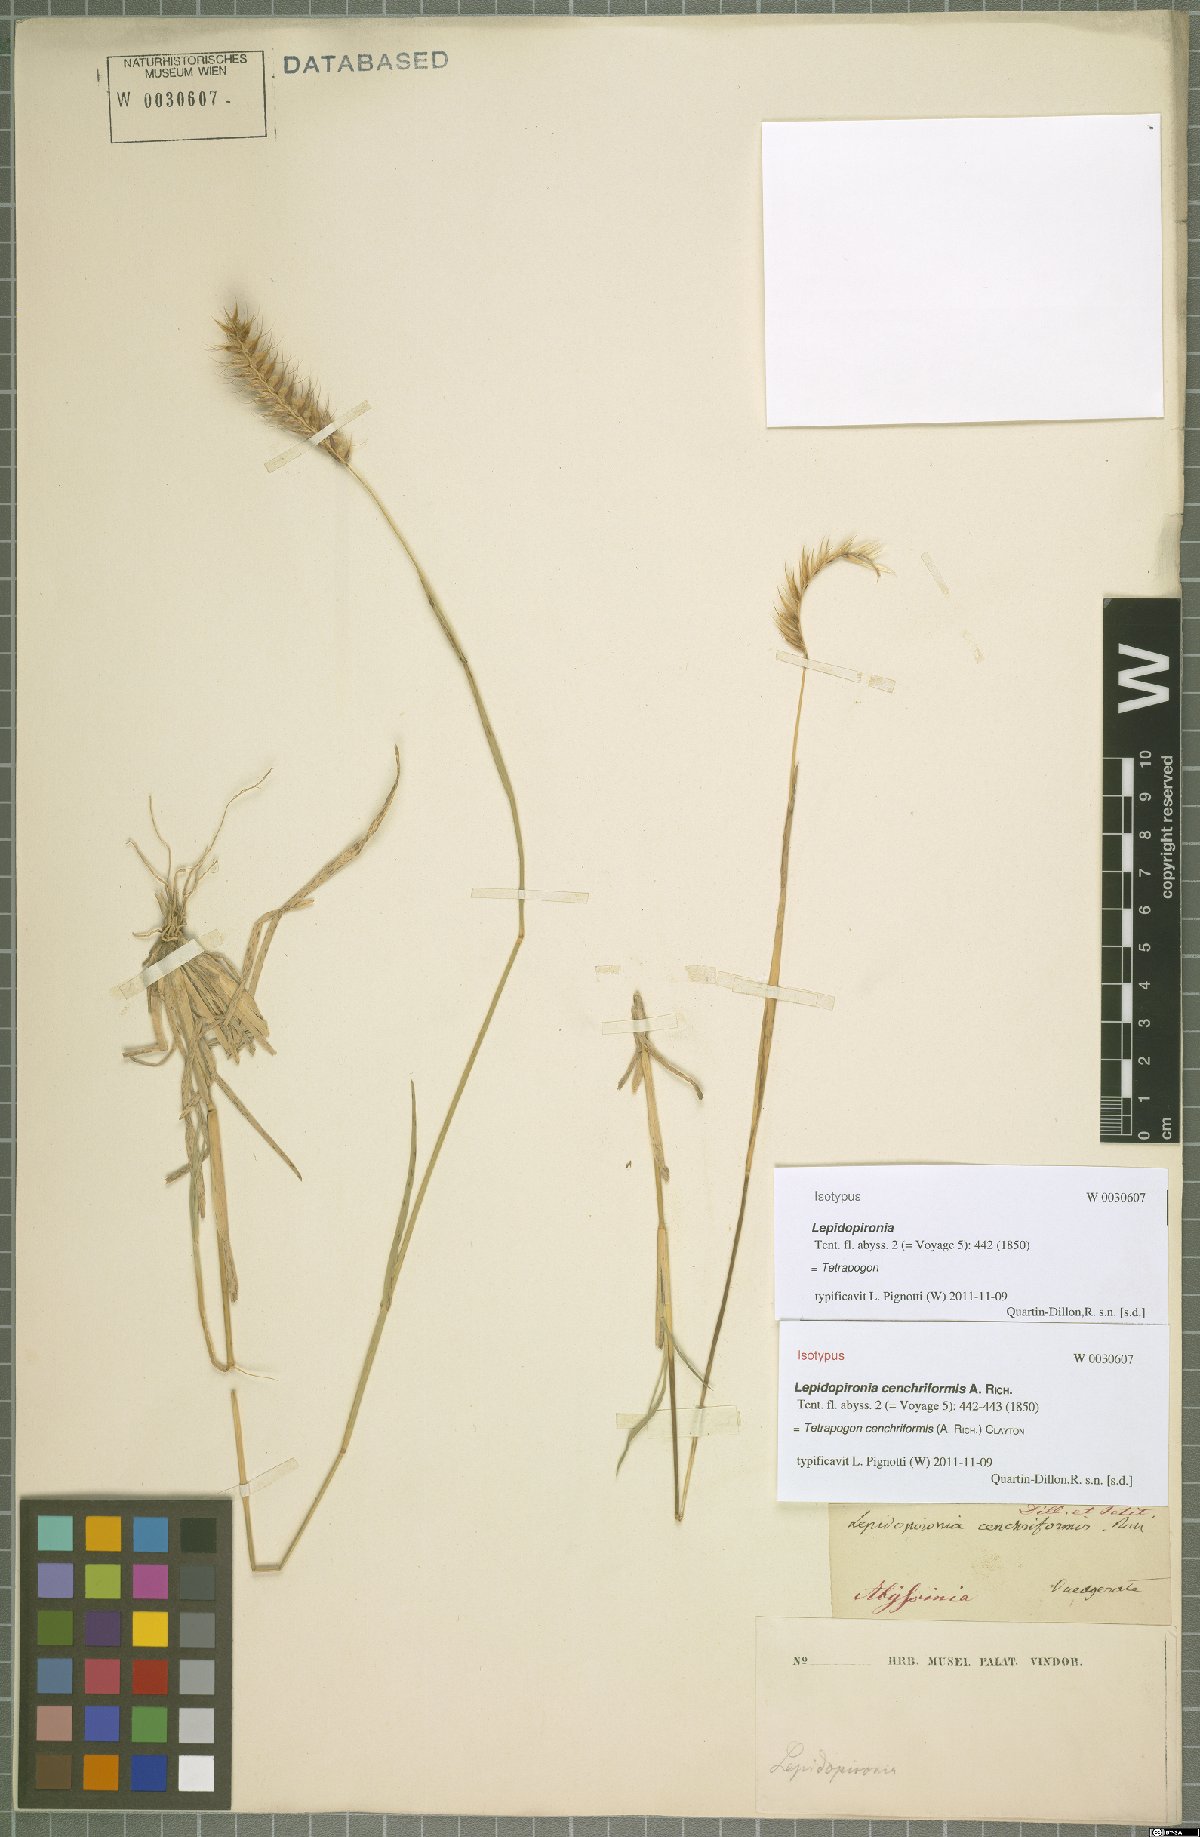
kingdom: Plantae
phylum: Tracheophyta
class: Liliopsida
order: Poales
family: Poaceae
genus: Tetrapogon
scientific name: Tetrapogon cenchriformis
